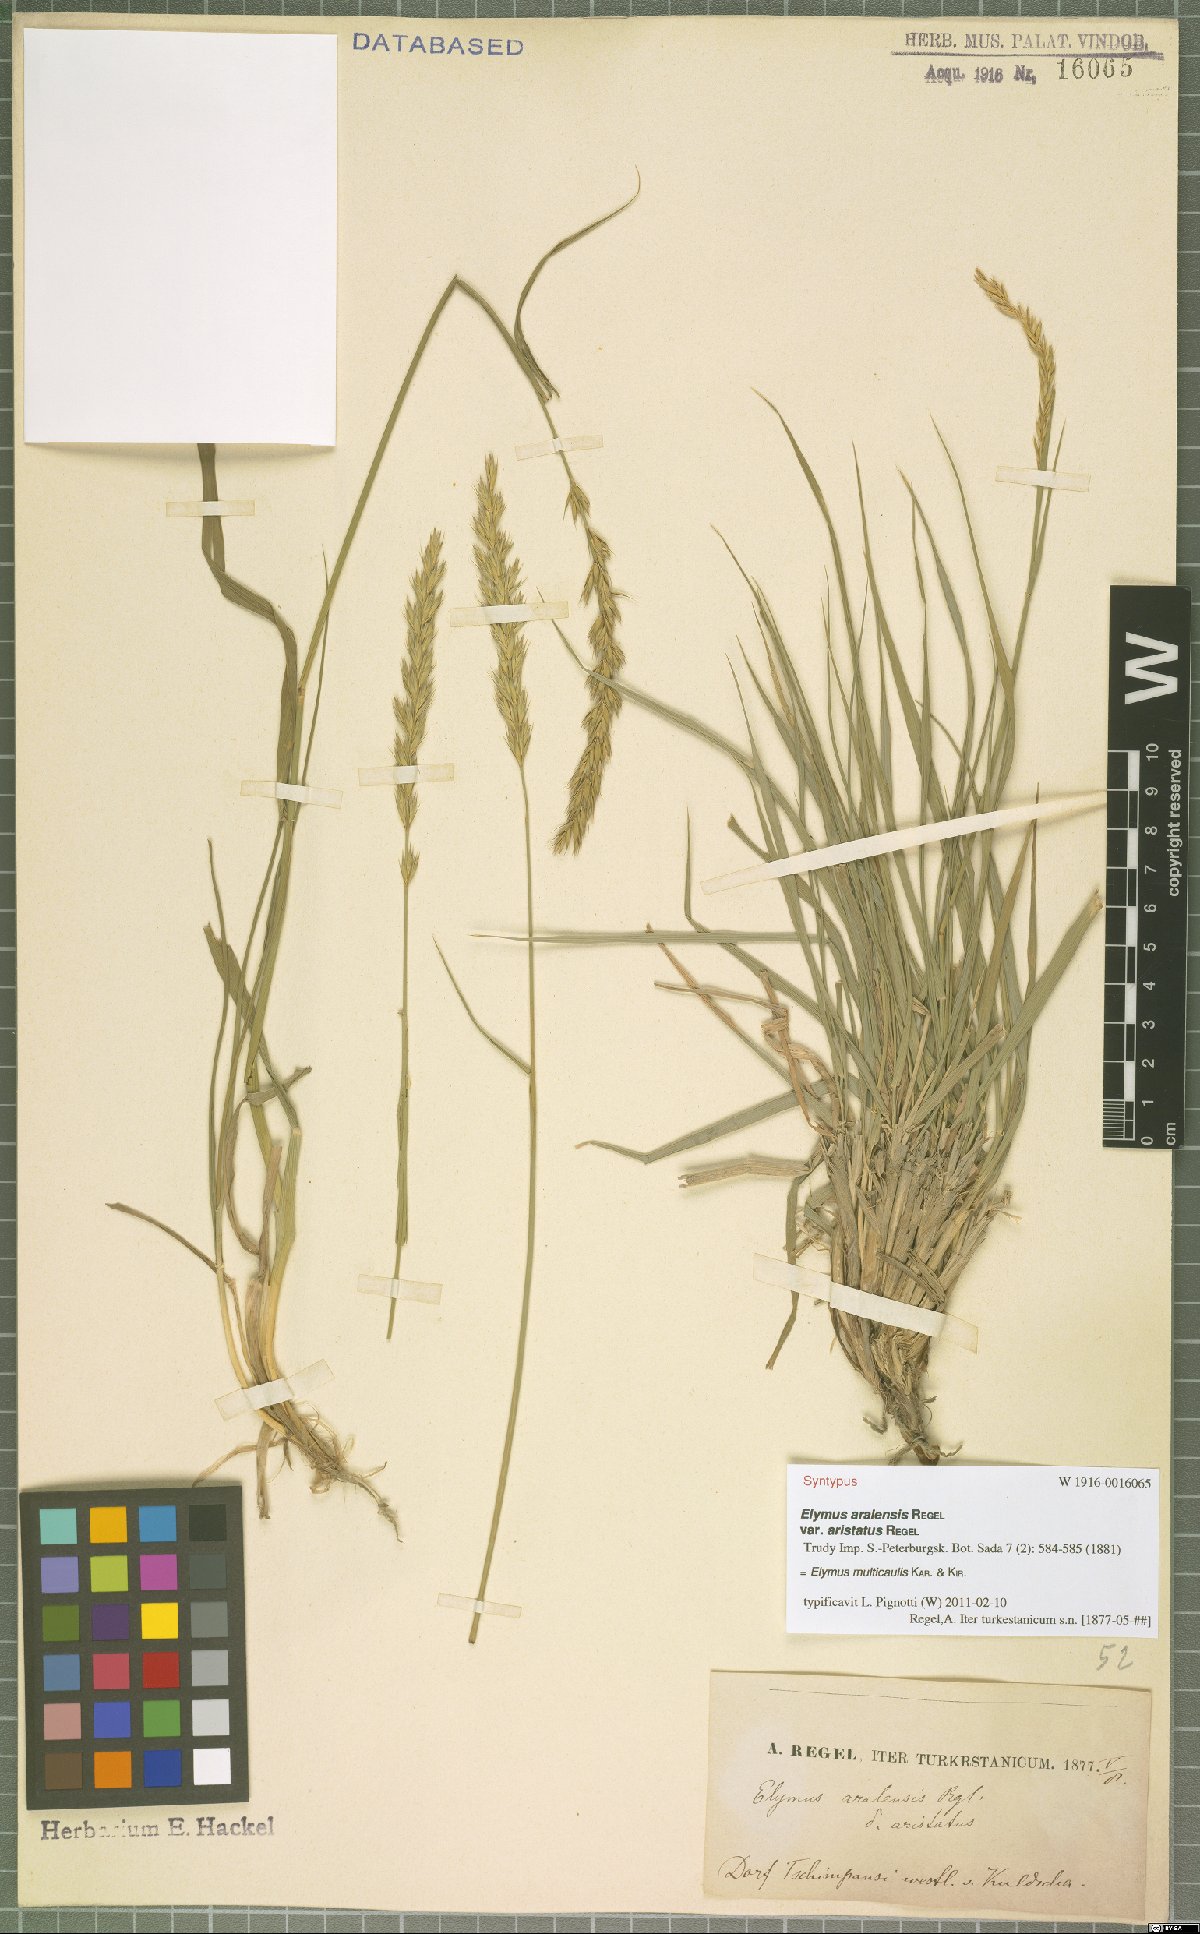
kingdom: Plantae
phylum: Tracheophyta
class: Liliopsida
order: Poales
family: Poaceae
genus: Leymus
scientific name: Leymus multicaulis
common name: Manystem wildrye
